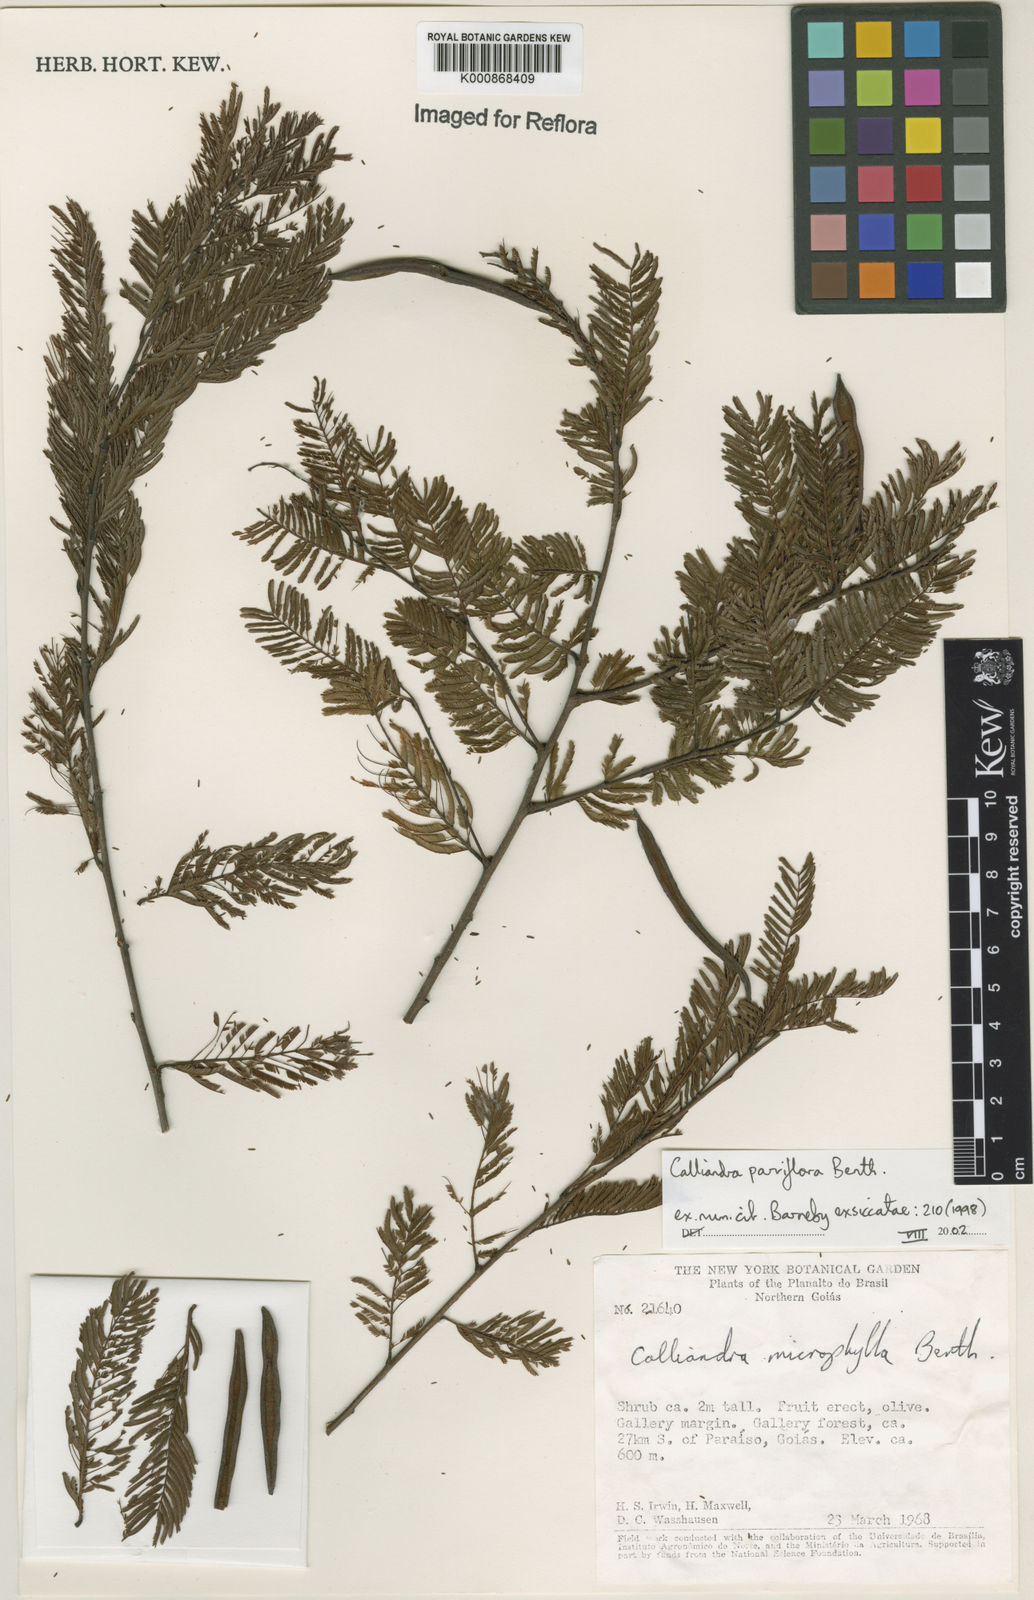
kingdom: Plantae
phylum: Tracheophyta
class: Magnoliopsida
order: Fabales
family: Fabaceae
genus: Calliandra
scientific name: Calliandra parviflora
